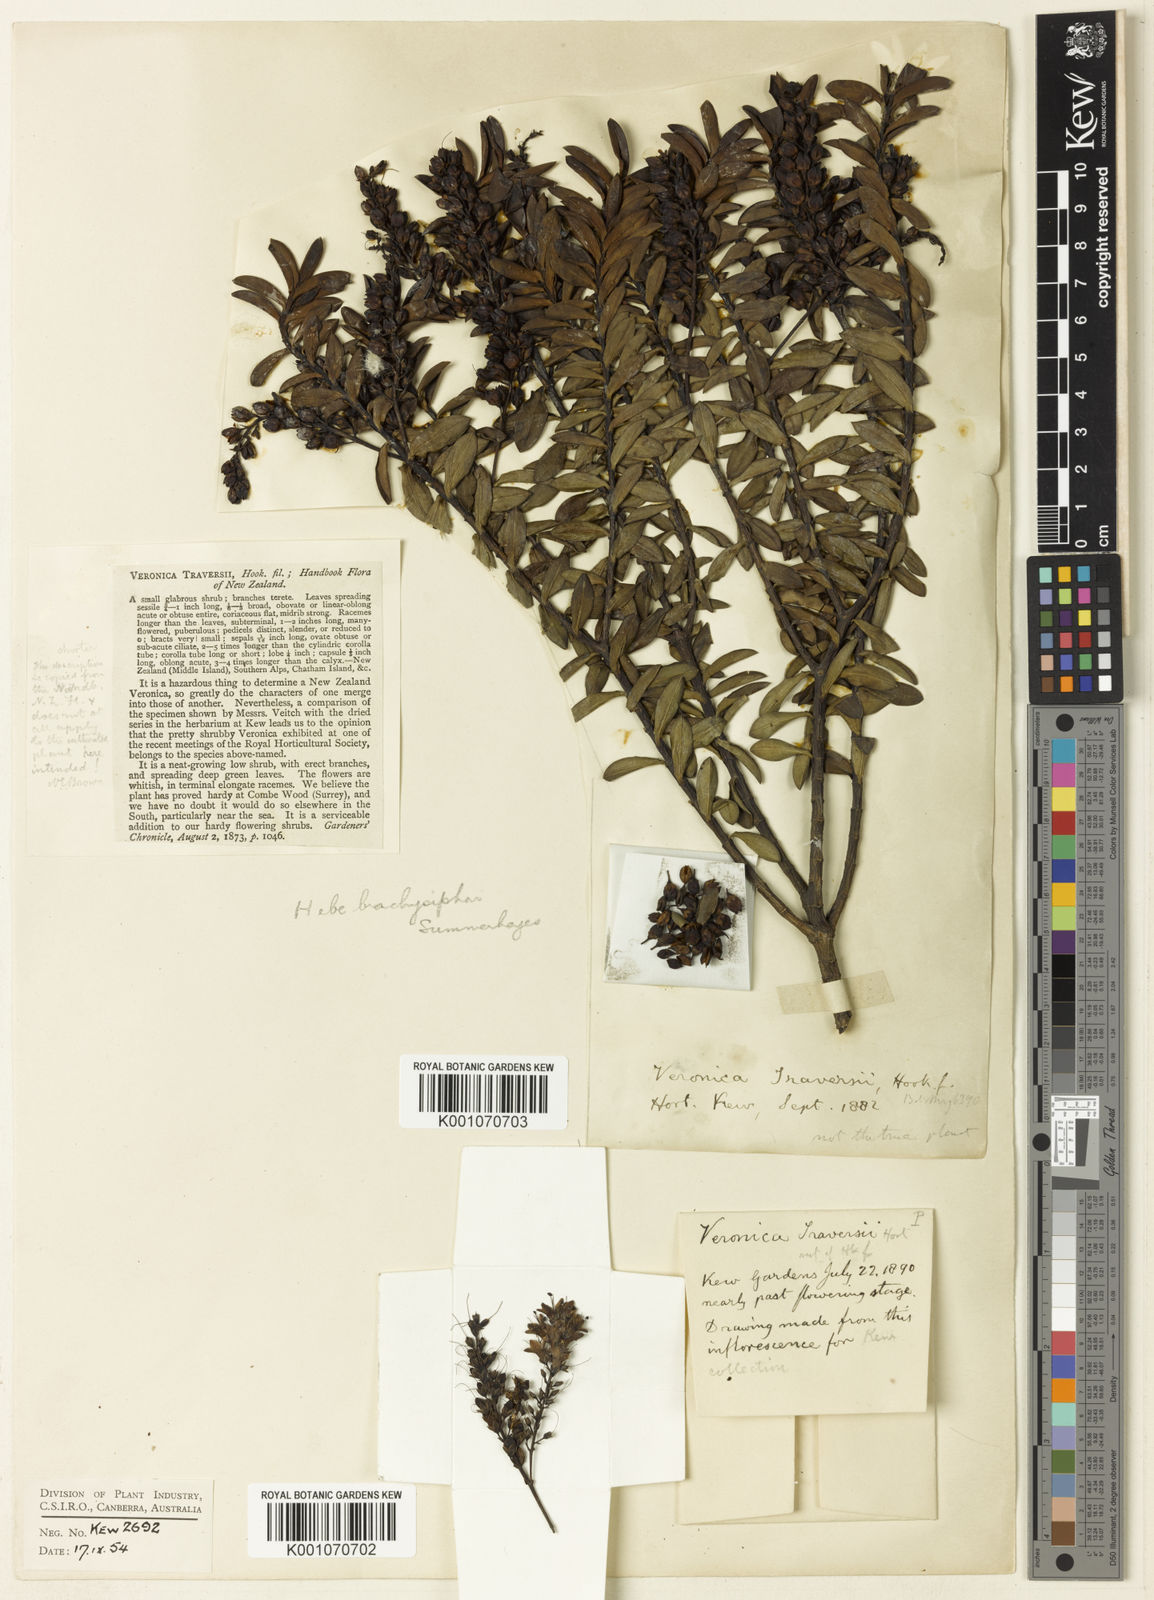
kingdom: Plantae
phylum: Tracheophyta
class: Magnoliopsida
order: Lamiales
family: Plantaginaceae
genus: Veronica
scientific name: Veronica brachysiphon
